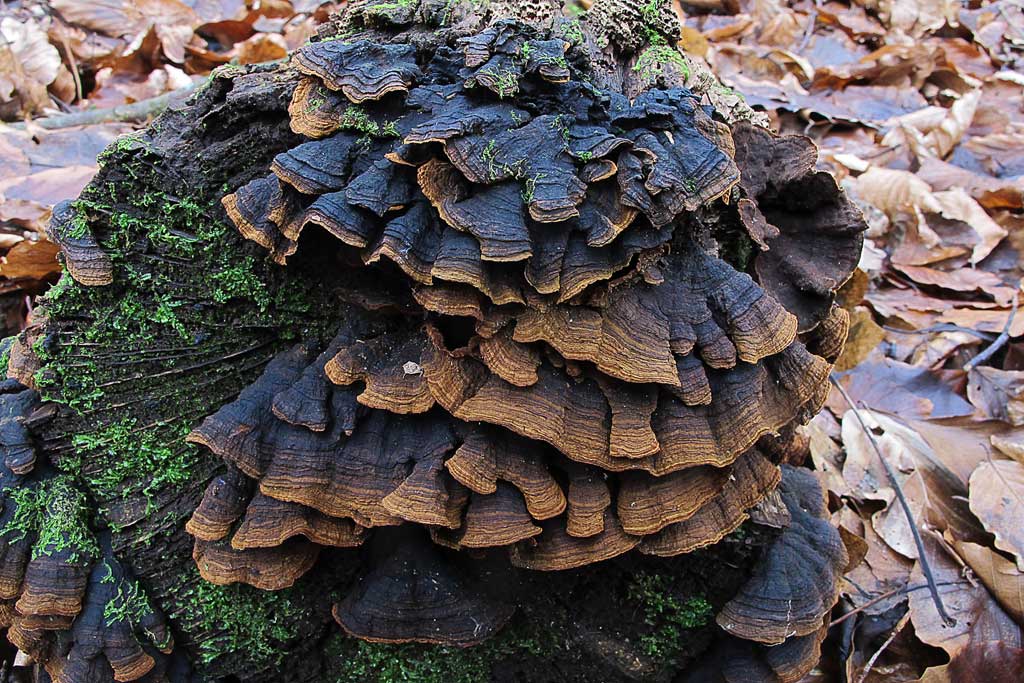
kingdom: Fungi
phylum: Basidiomycota
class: Agaricomycetes
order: Hymenochaetales
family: Hymenochaetaceae
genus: Hymenochaete
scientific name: Hymenochaete rubiginosa
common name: stiv ruslædersvamp
